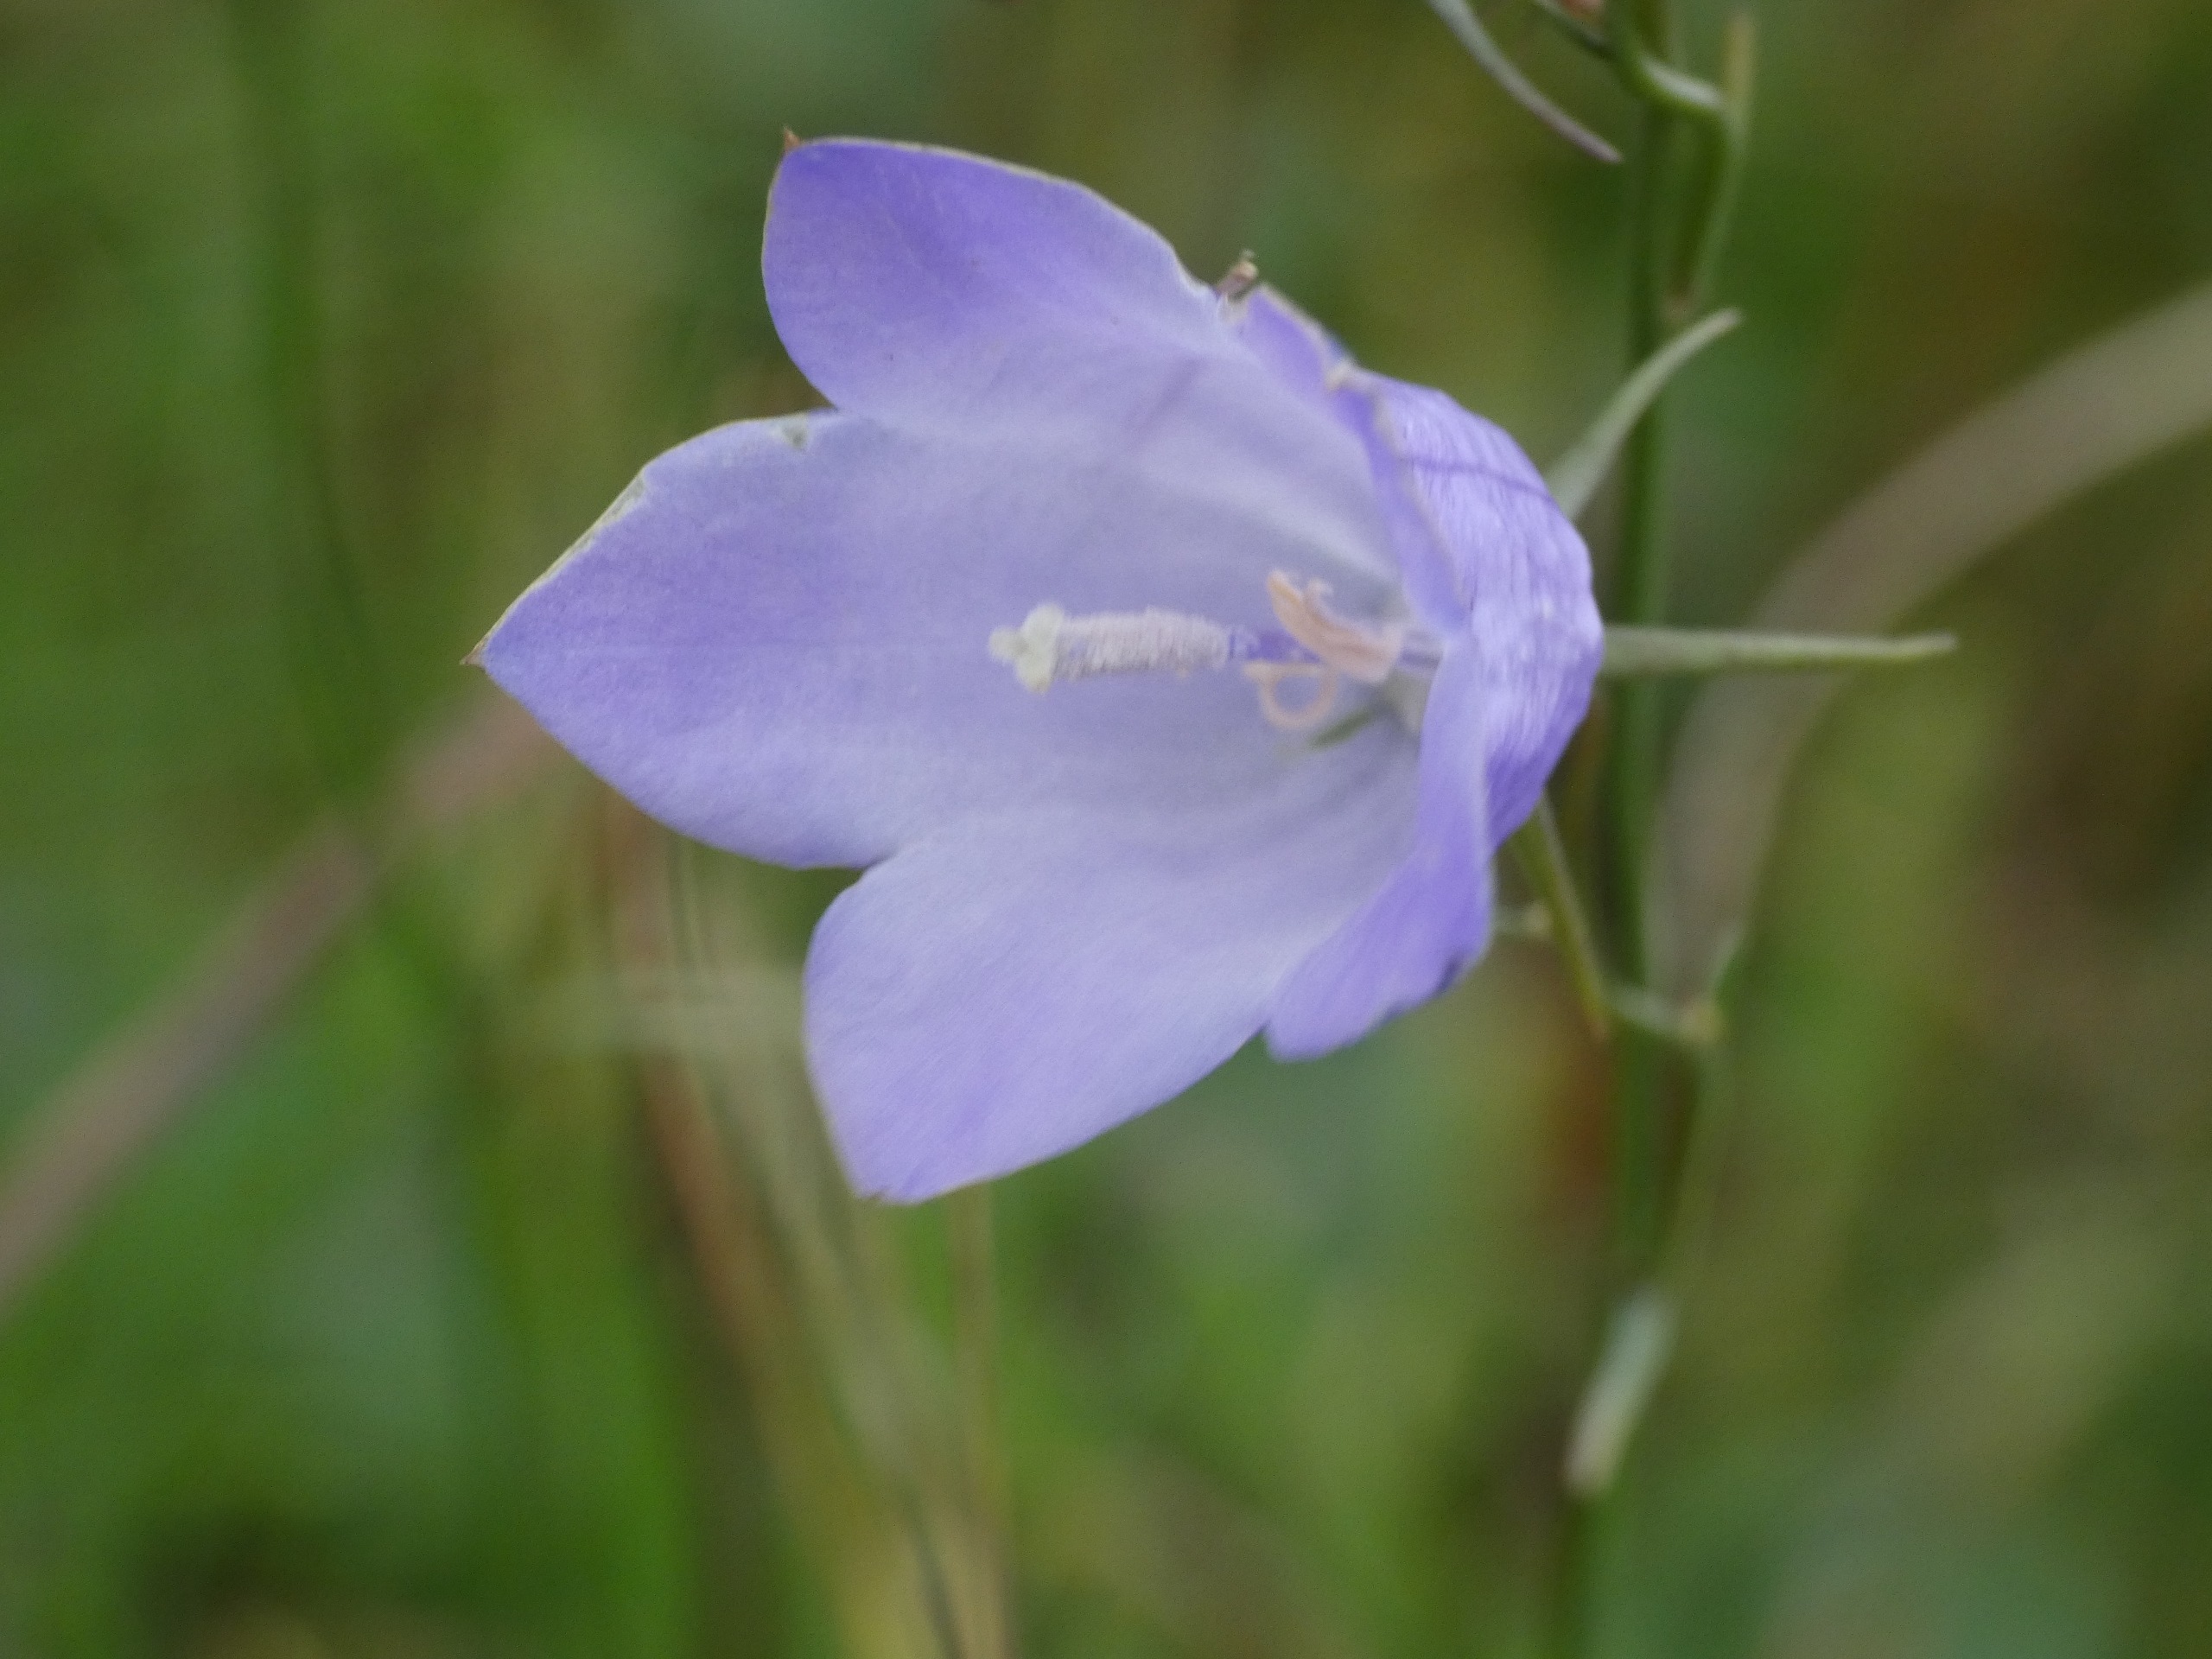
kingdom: Plantae
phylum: Tracheophyta
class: Magnoliopsida
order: Asterales
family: Campanulaceae
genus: Campanula
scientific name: Campanula rotundifolia
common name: Liden klokke
